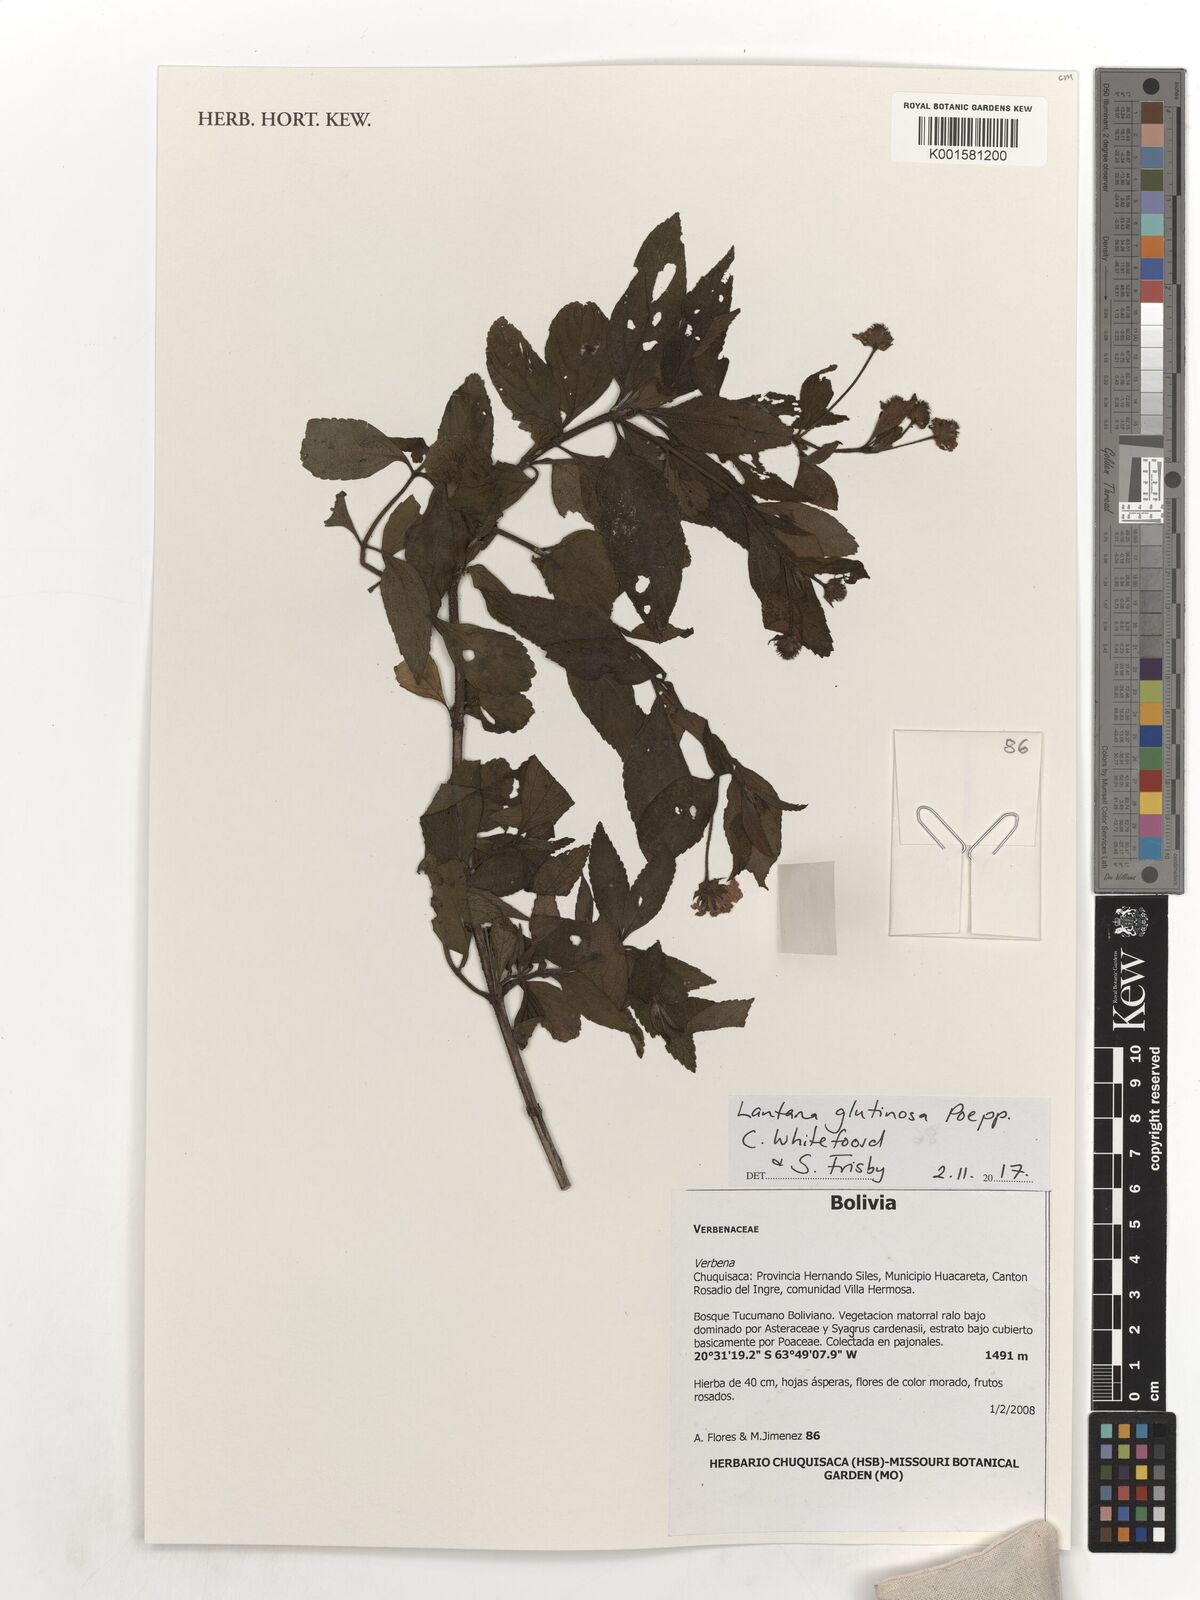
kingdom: Plantae
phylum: Tracheophyta
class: Magnoliopsida
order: Lamiales
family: Verbenaceae
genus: Lantana
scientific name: Lantana horrida
